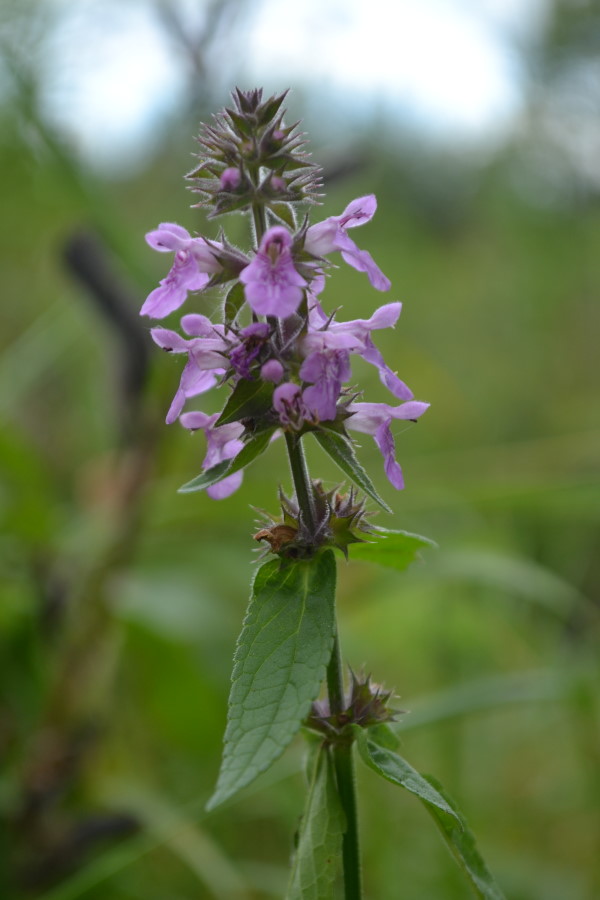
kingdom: Plantae
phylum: Tracheophyta
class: Magnoliopsida
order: Lamiales
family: Lamiaceae
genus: Stachys
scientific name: Stachys palustris
